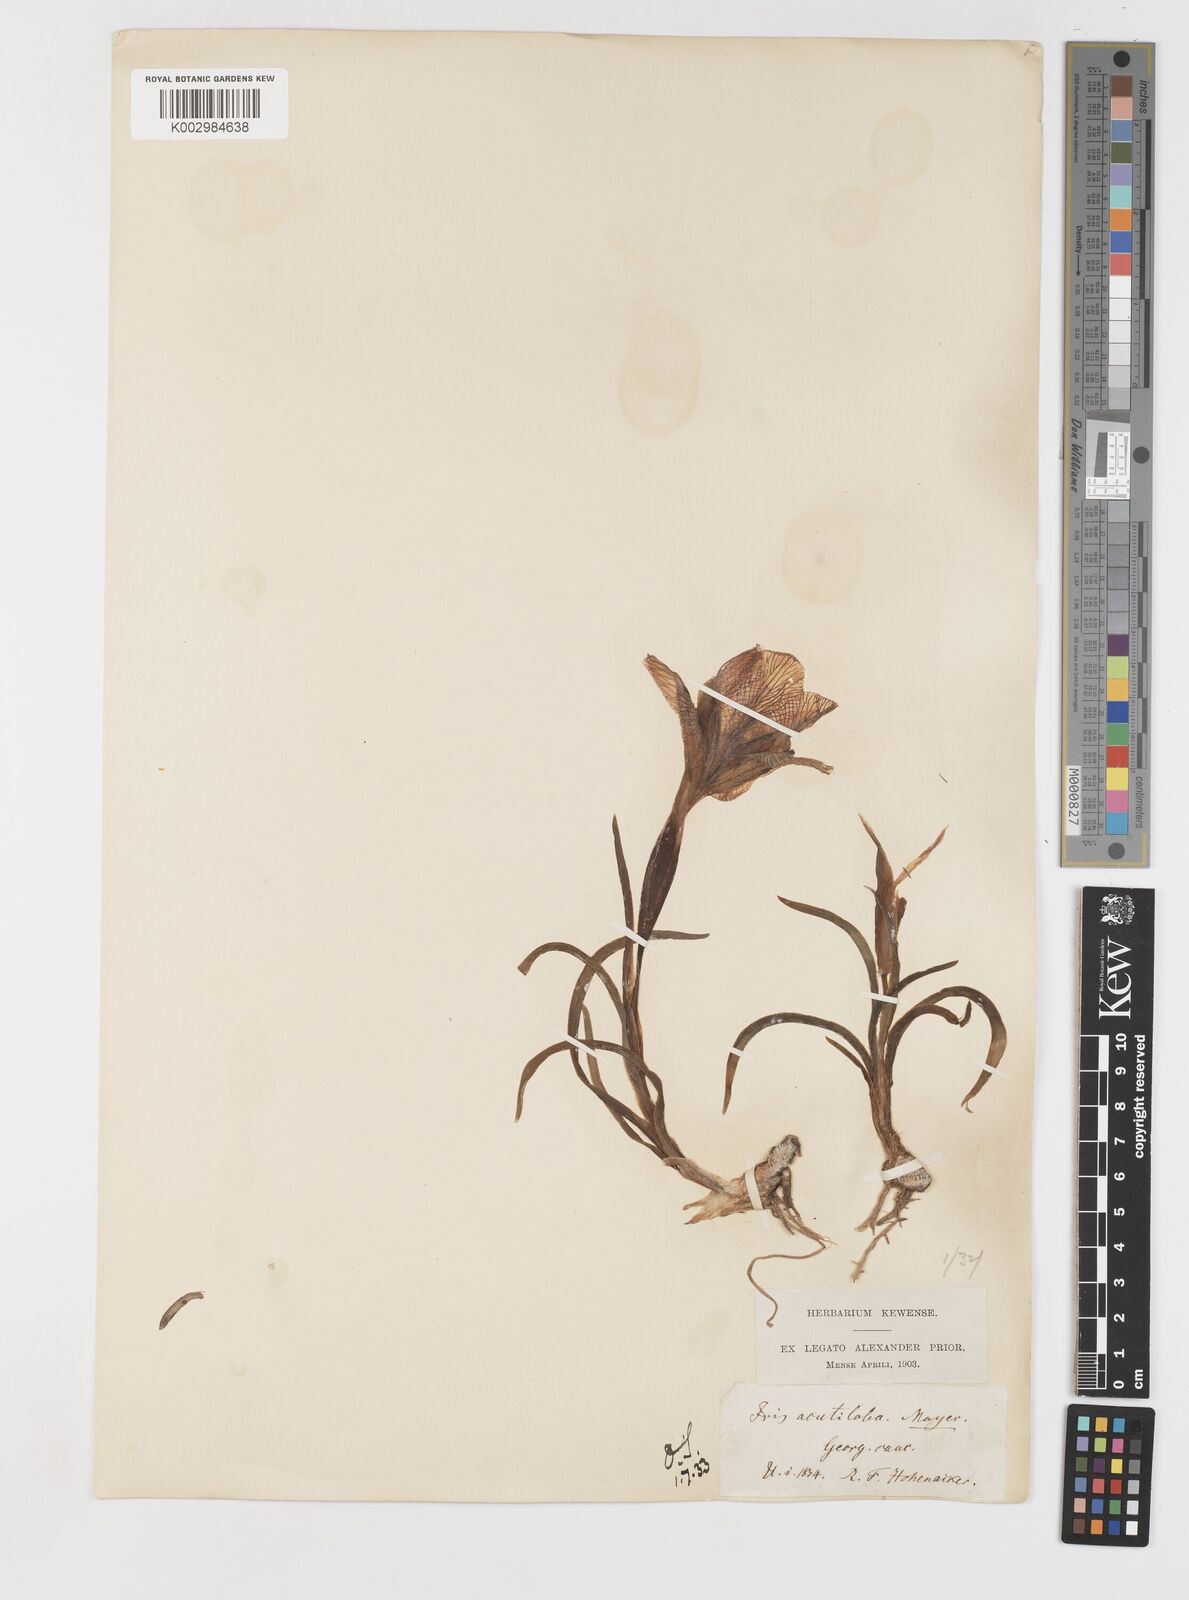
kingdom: Plantae
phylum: Tracheophyta
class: Liliopsida
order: Asparagales
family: Iridaceae
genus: Iris
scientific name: Iris acutiloba
